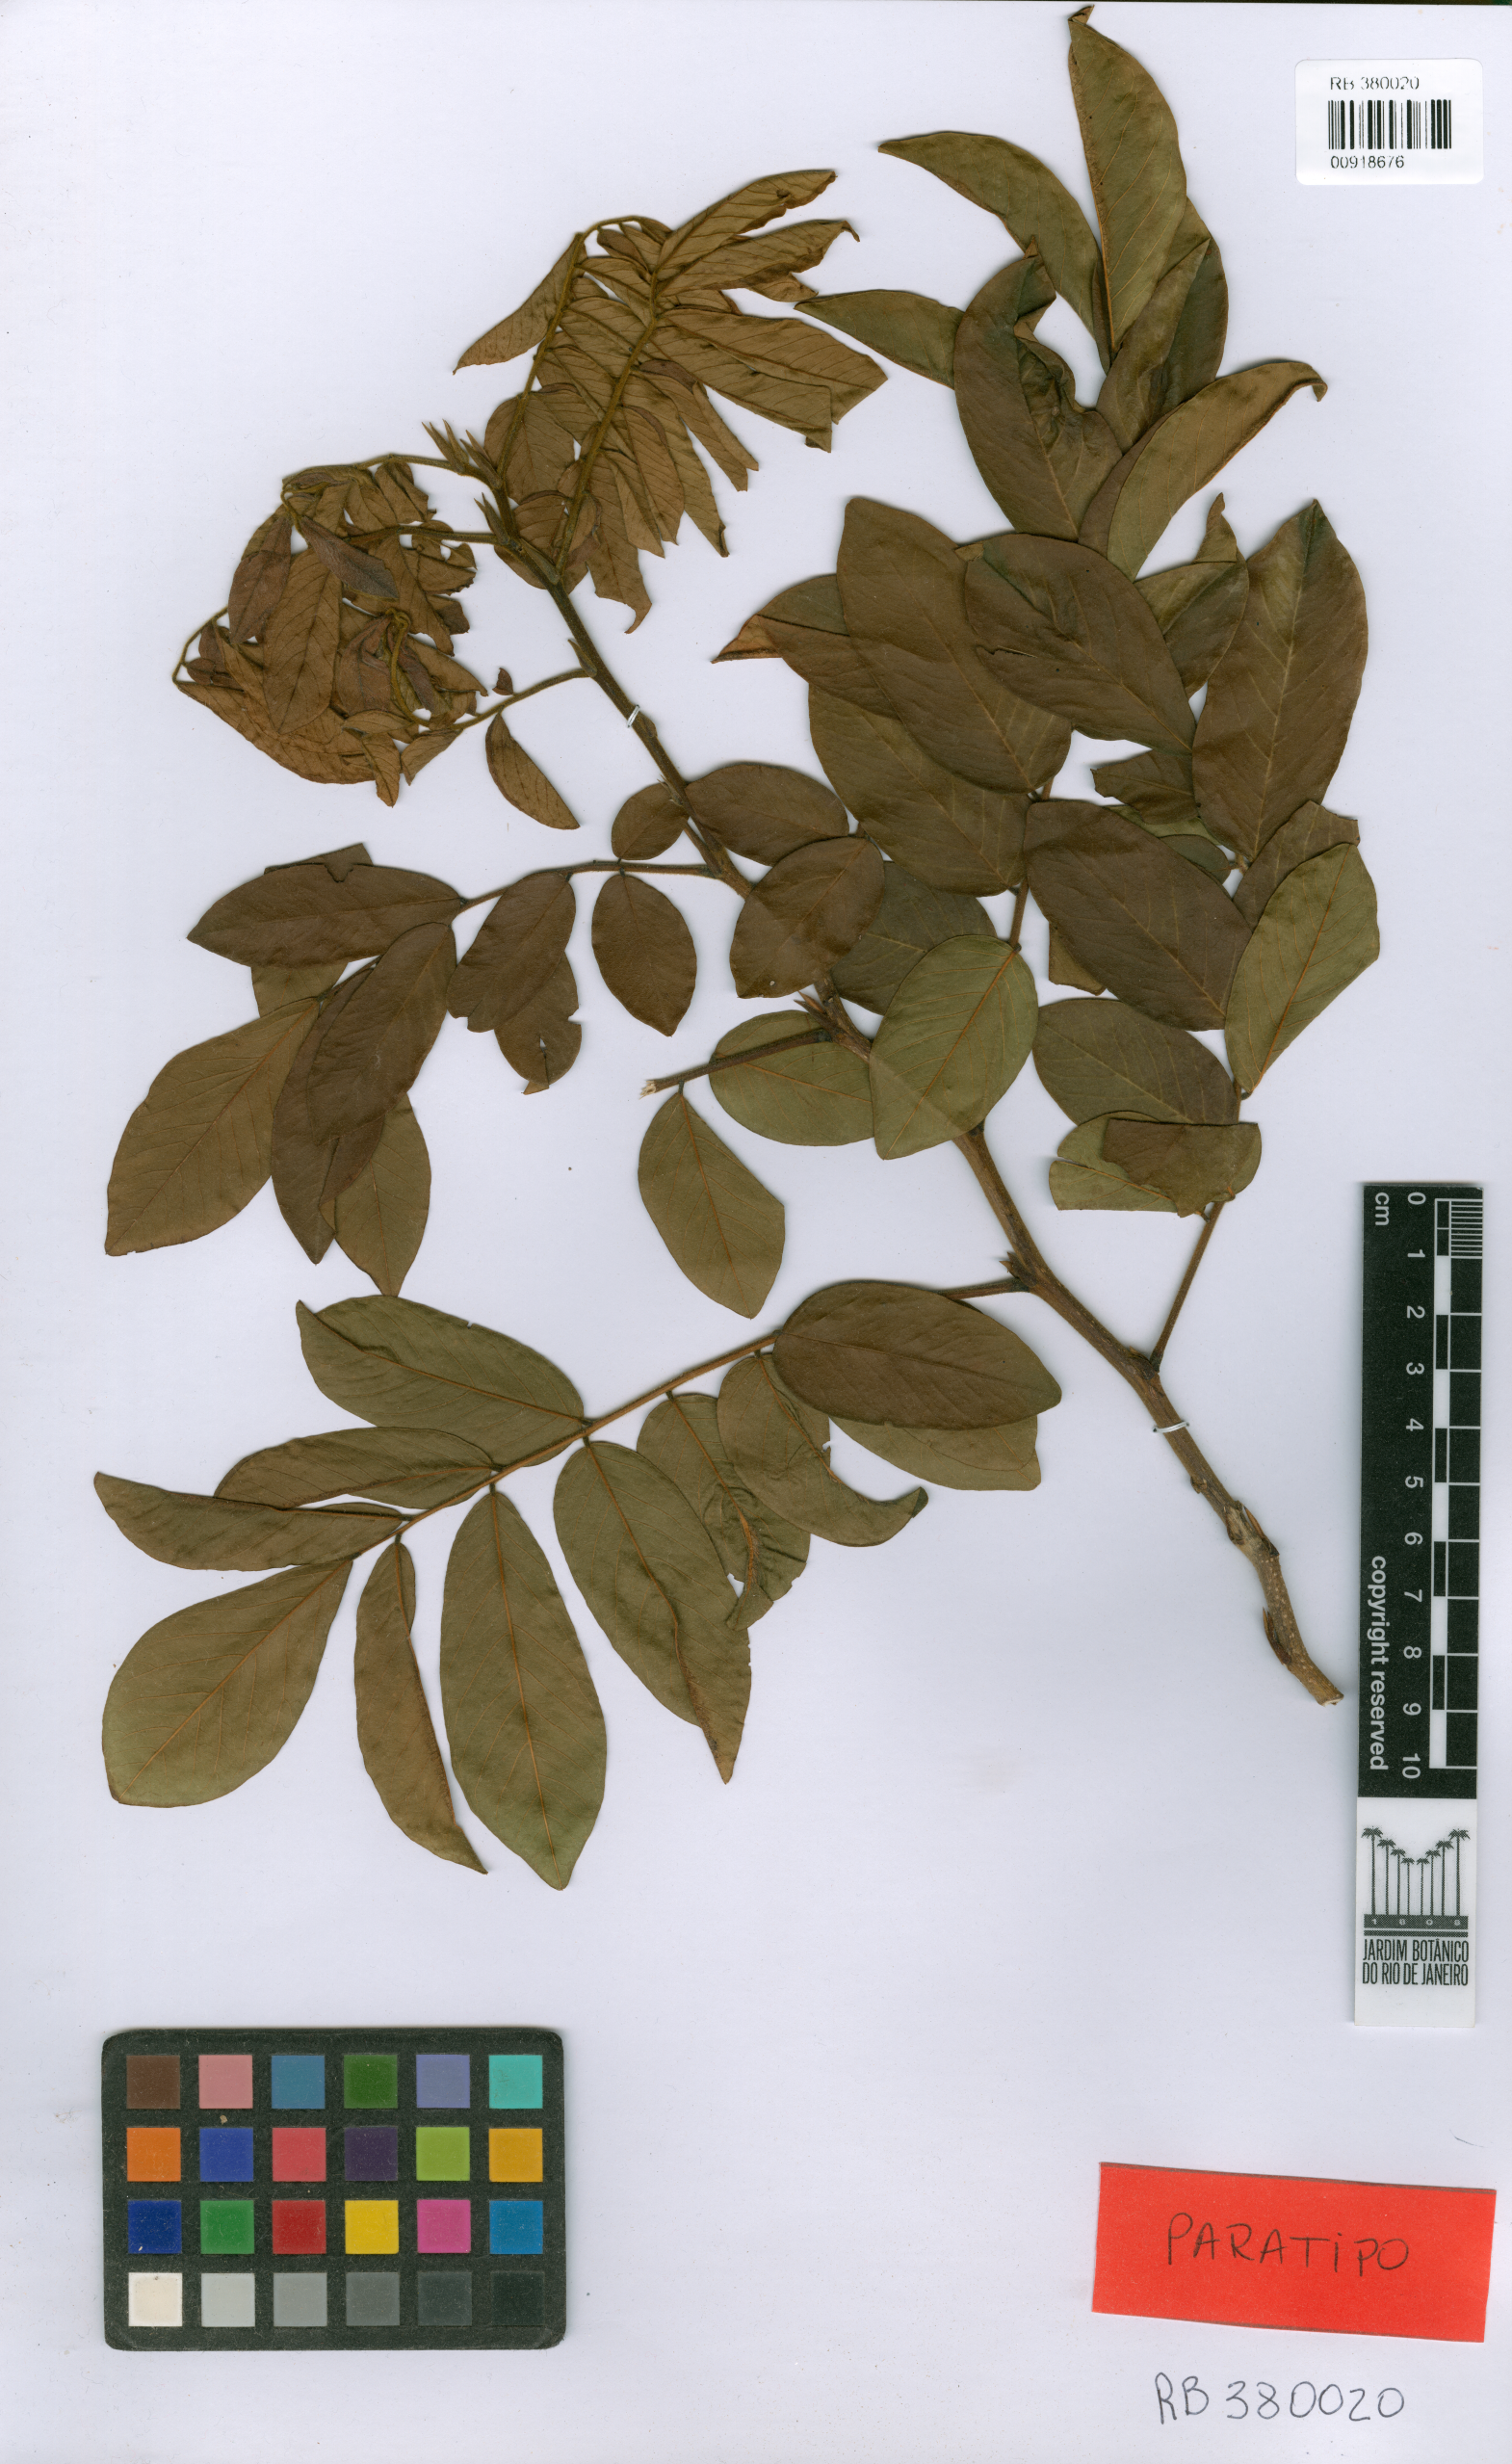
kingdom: Plantae
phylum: Tracheophyta
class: Magnoliopsida
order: Fabales
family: Fabaceae
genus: Machaerium
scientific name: Machaerium robsonianum
